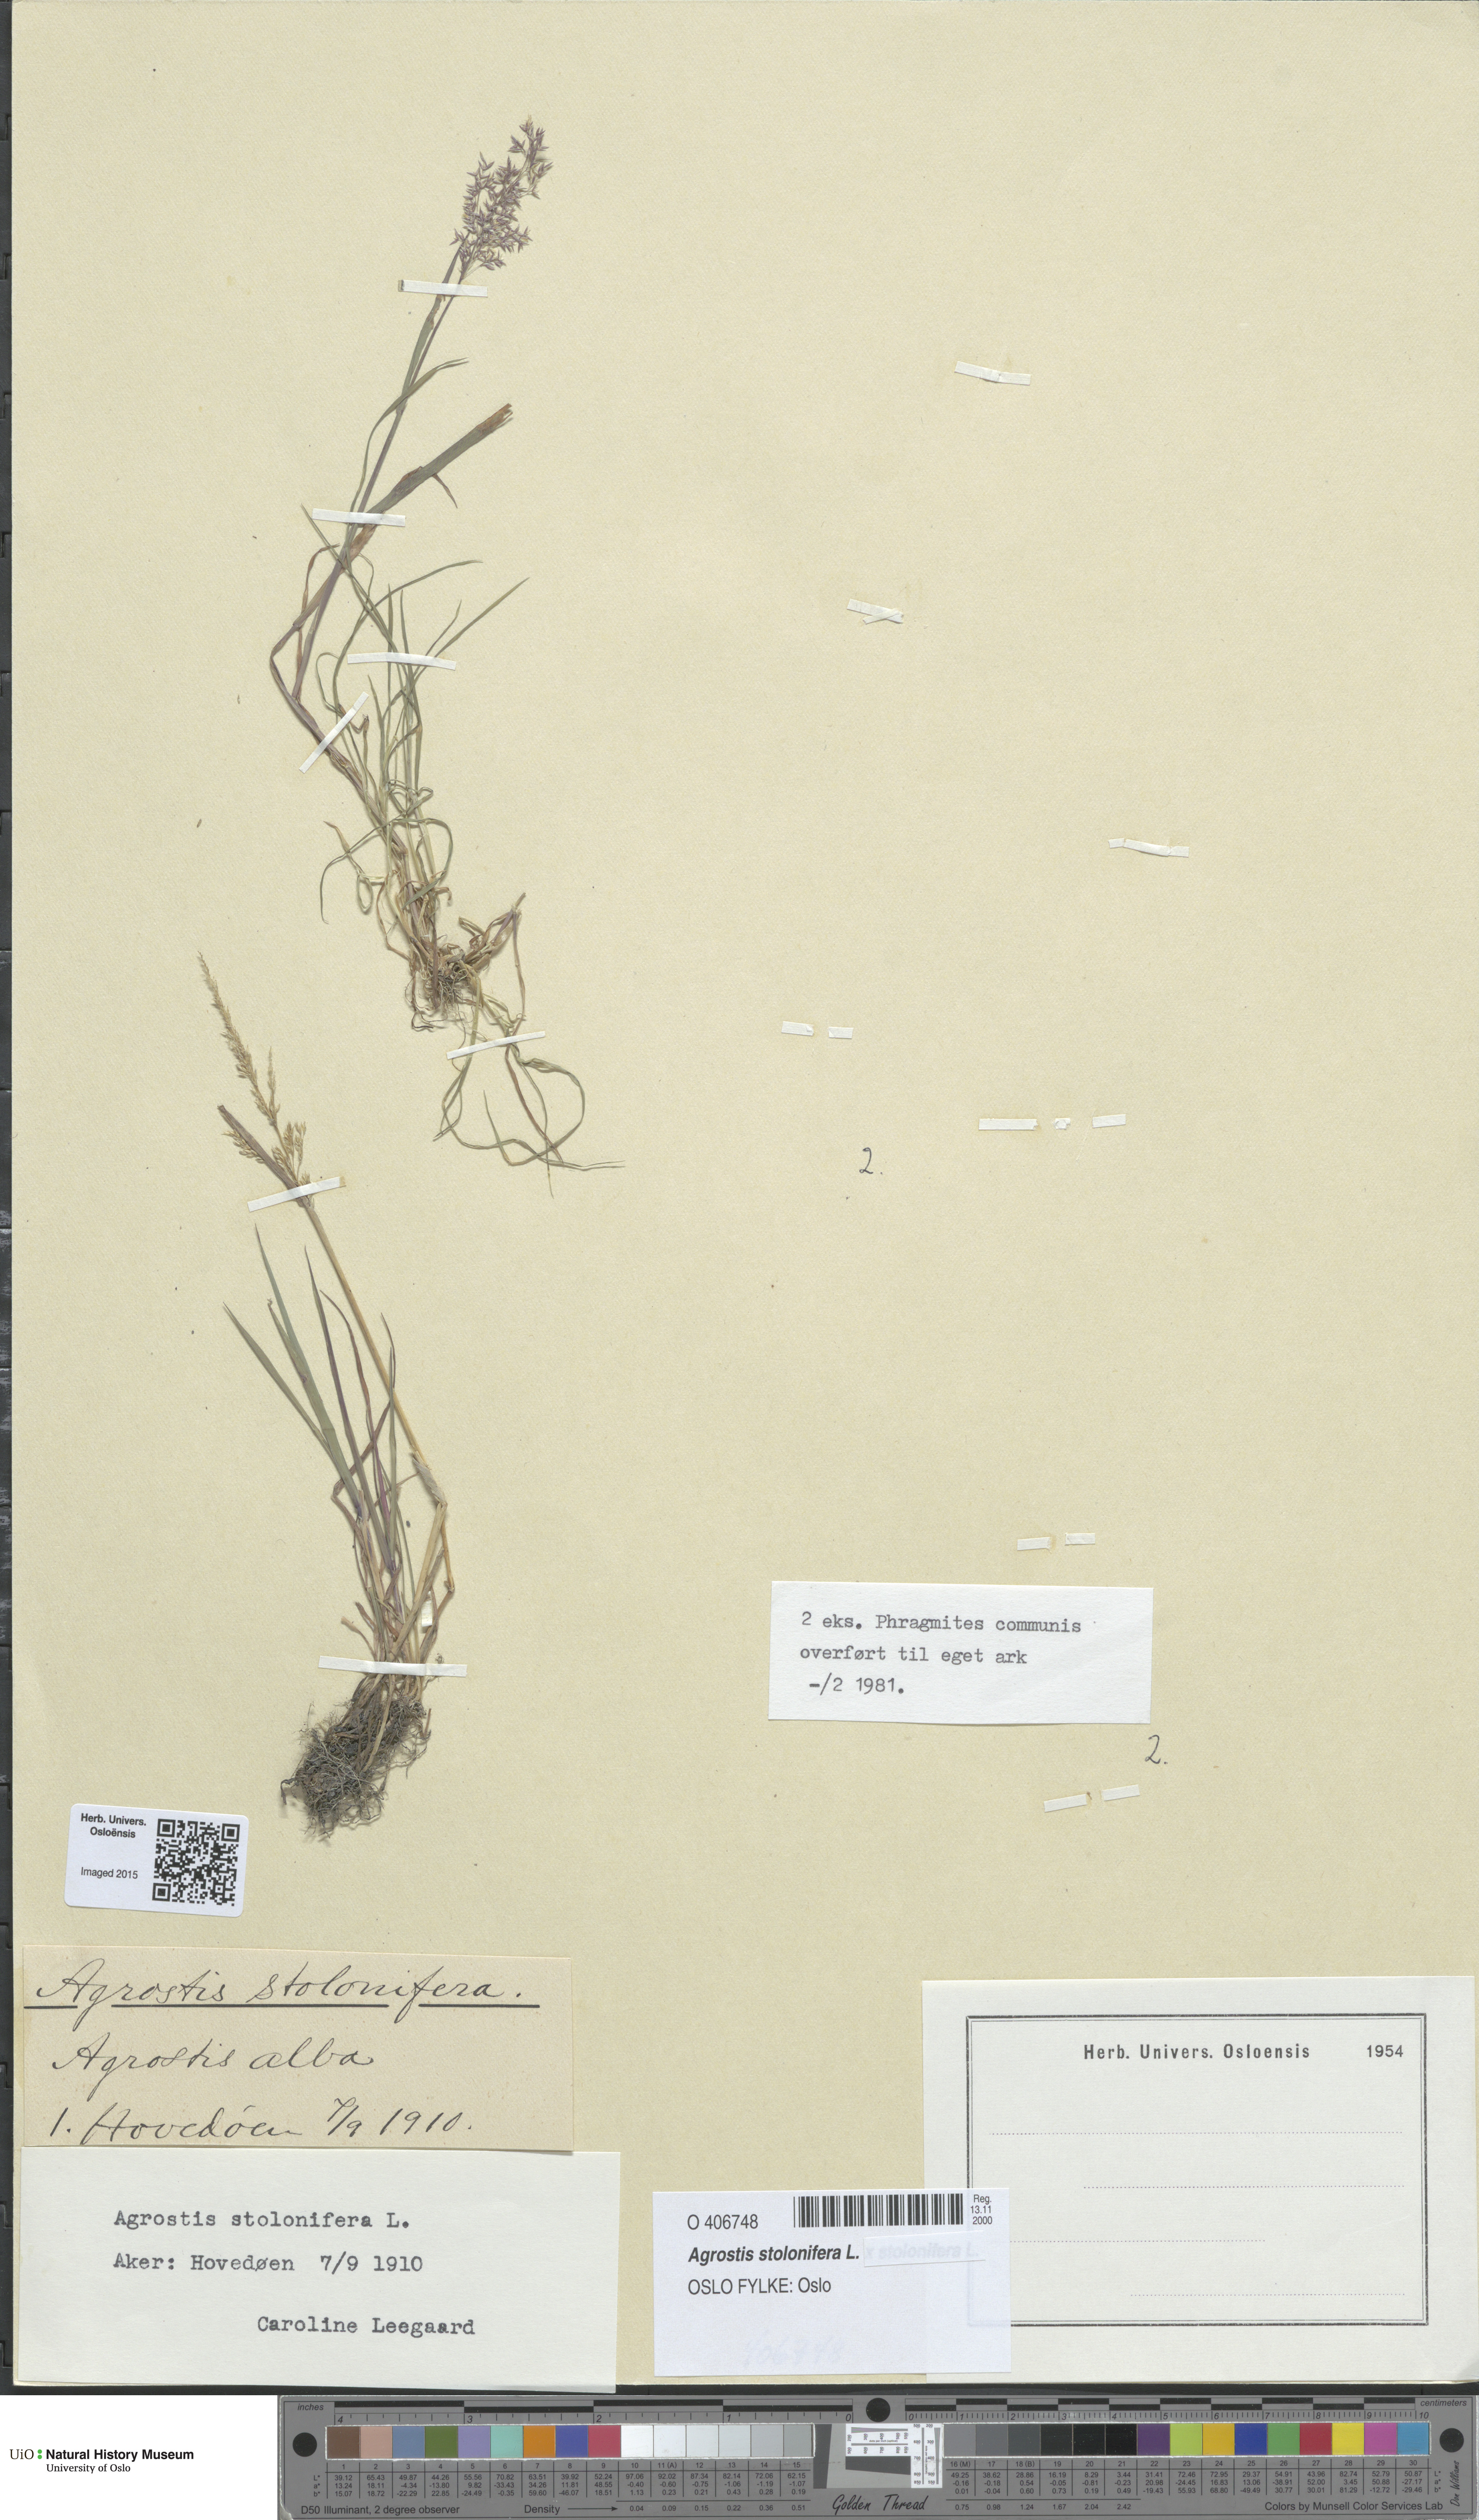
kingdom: Plantae
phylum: Tracheophyta
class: Liliopsida
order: Poales
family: Poaceae
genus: Agrostis
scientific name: Agrostis stolonifera
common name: Creeping bentgrass
